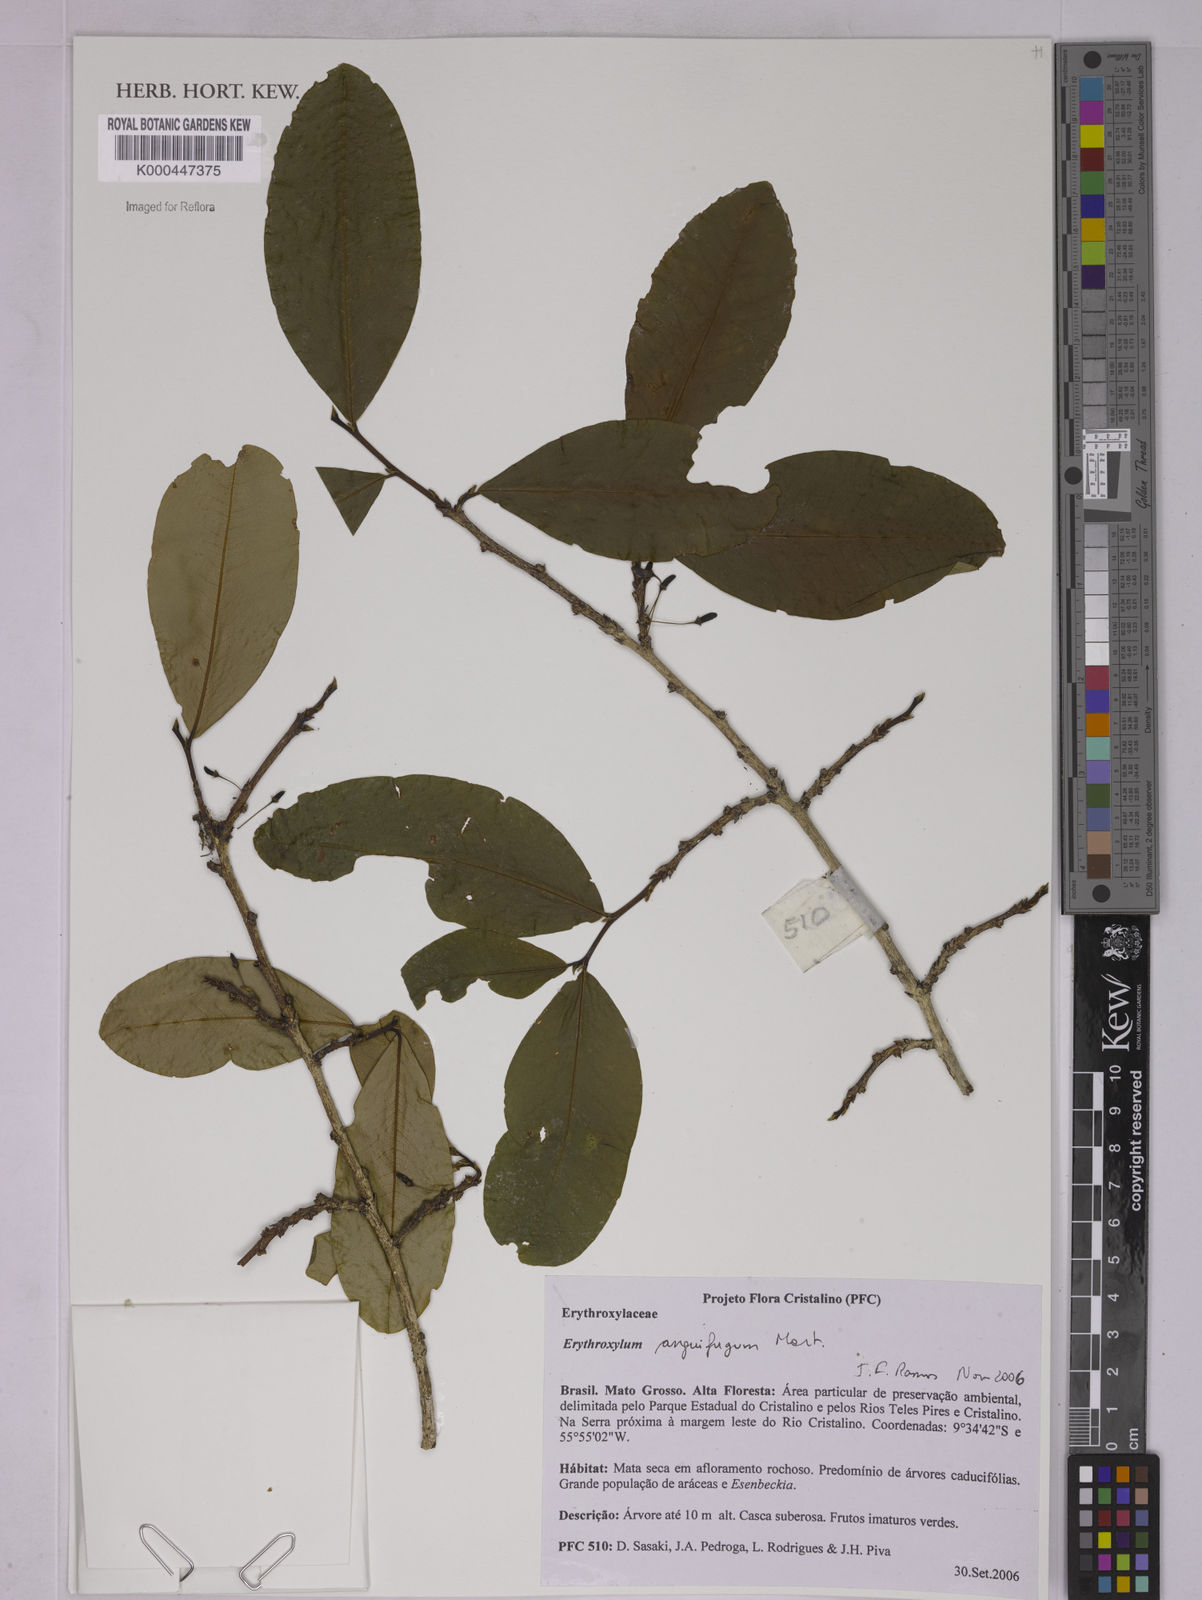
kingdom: Plantae
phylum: Tracheophyta
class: Magnoliopsida
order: Malpighiales
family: Erythroxylaceae
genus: Erythroxylum
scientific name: Erythroxylum anguifugum
